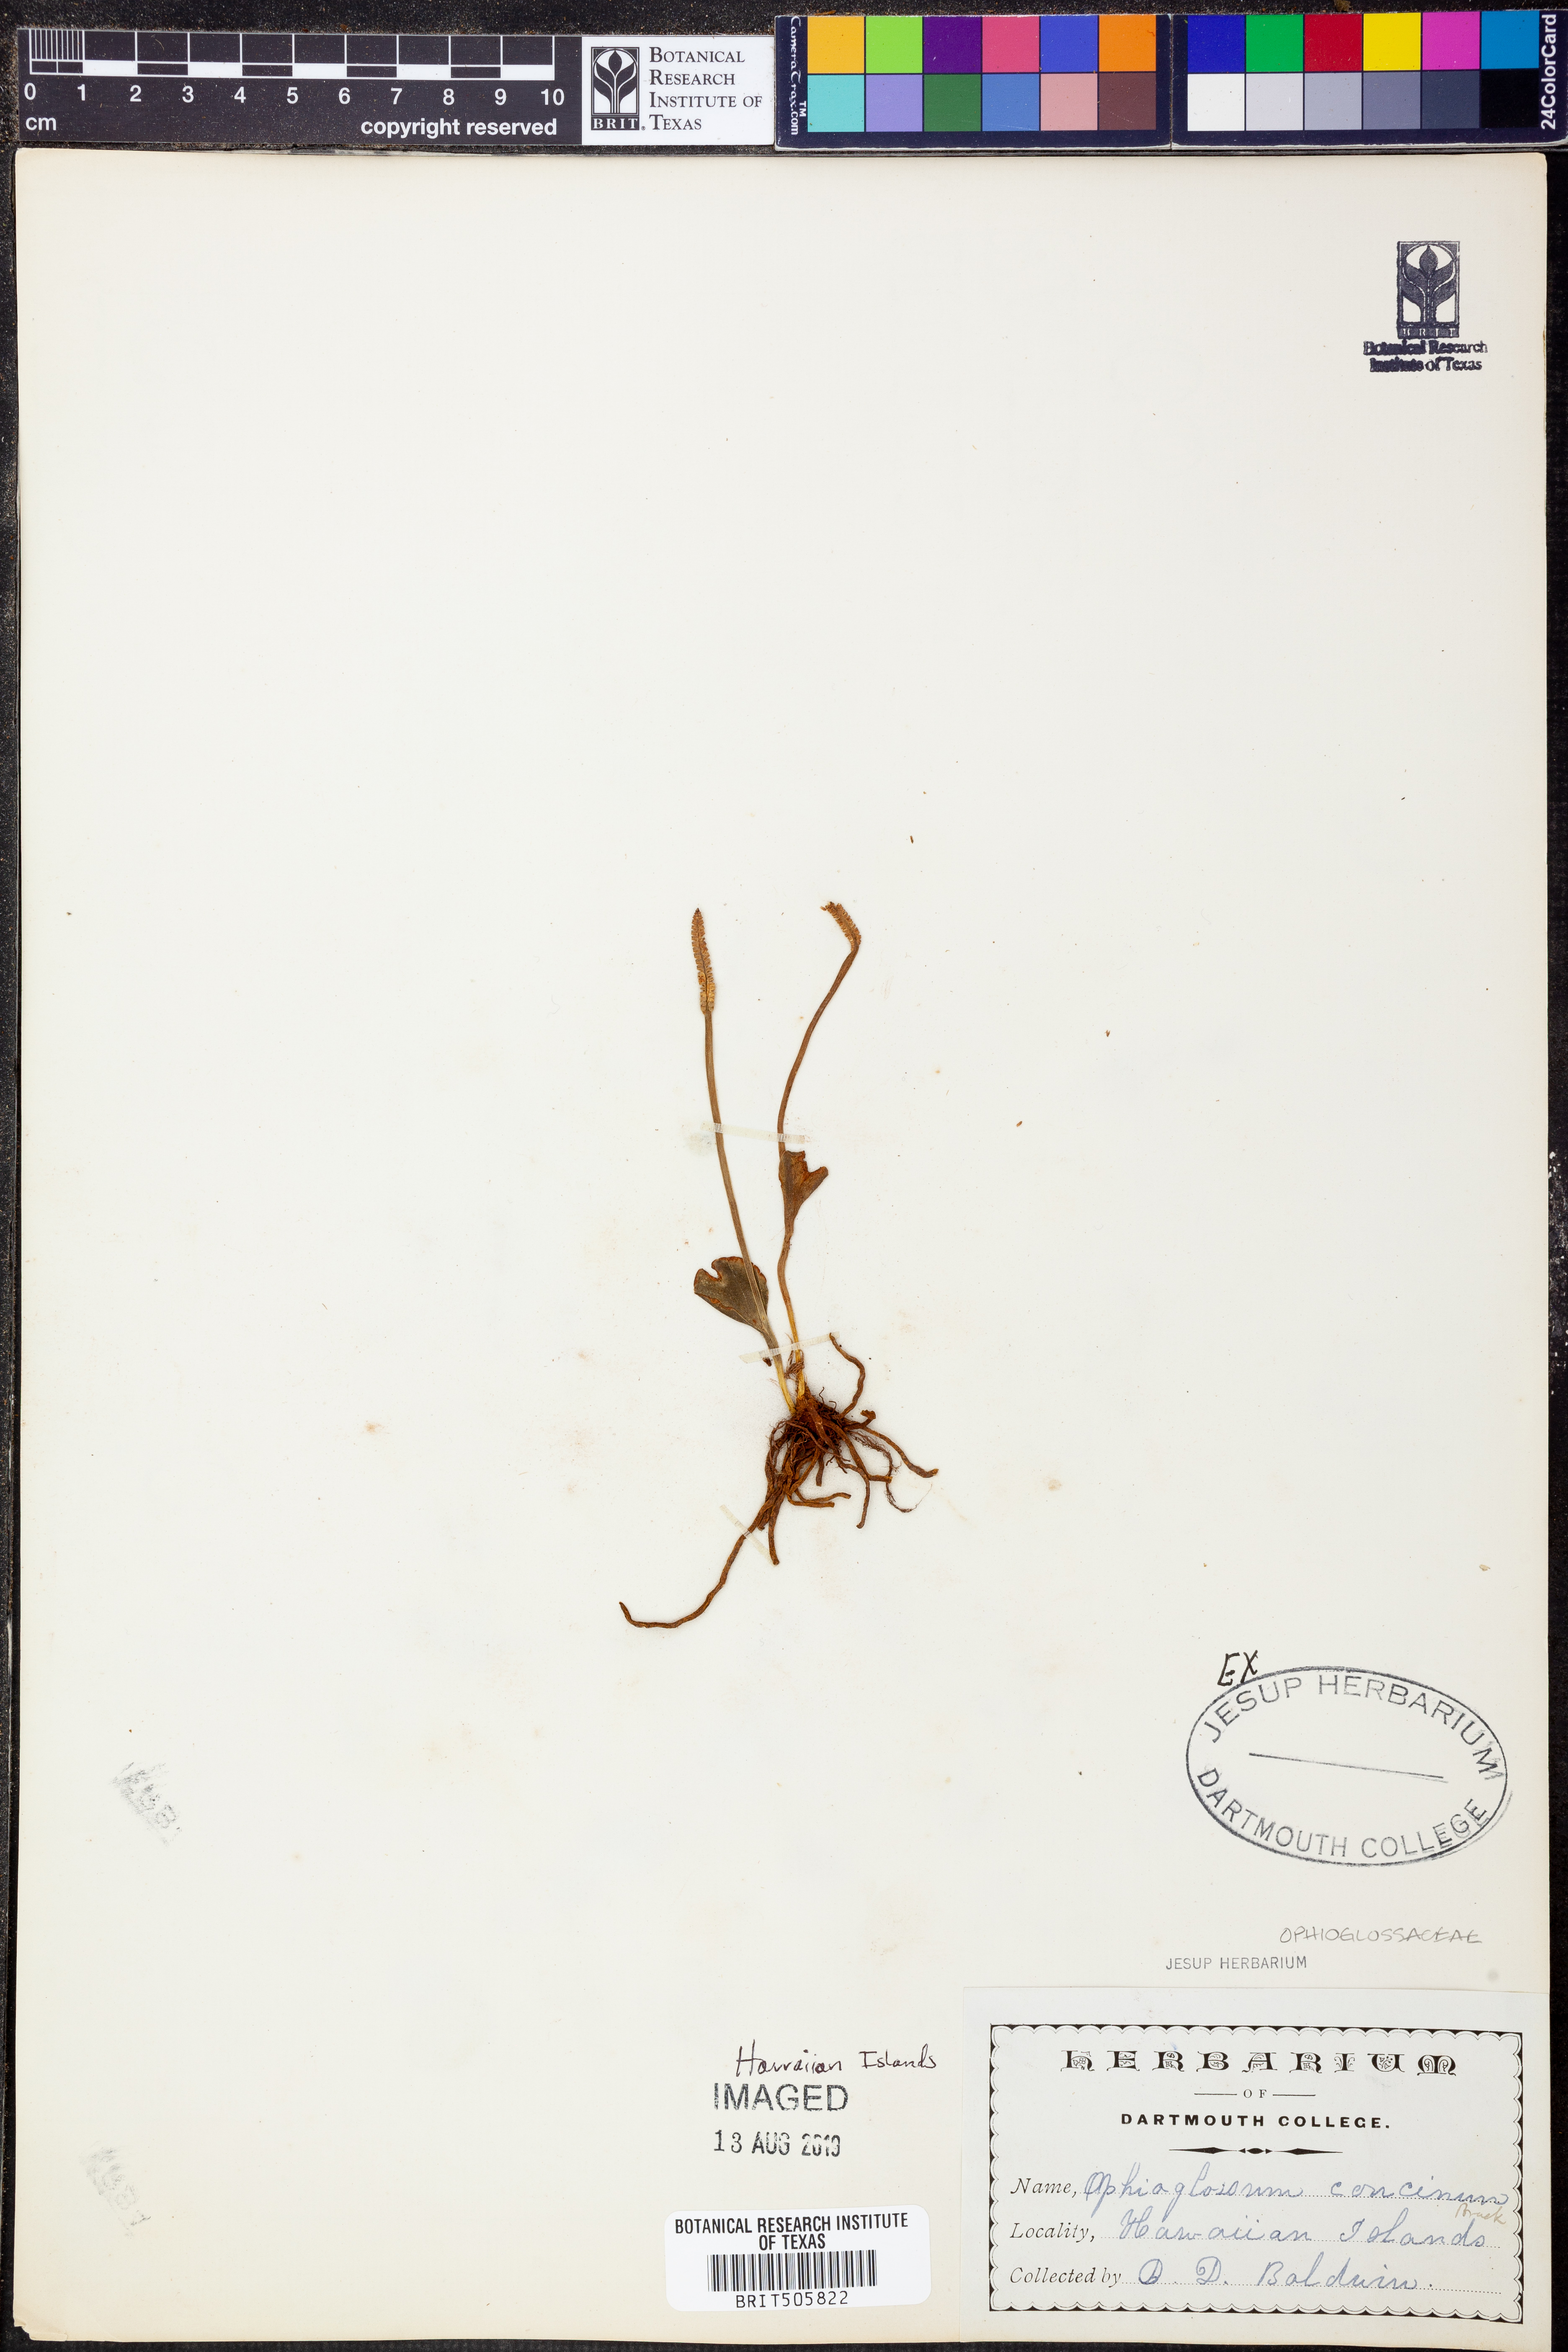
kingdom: Plantae
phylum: Tracheophyta
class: Polypodiopsida
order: Ophioglossales
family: Ophioglossaceae
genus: Ophioglossum
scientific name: Ophioglossum polyphyllum
